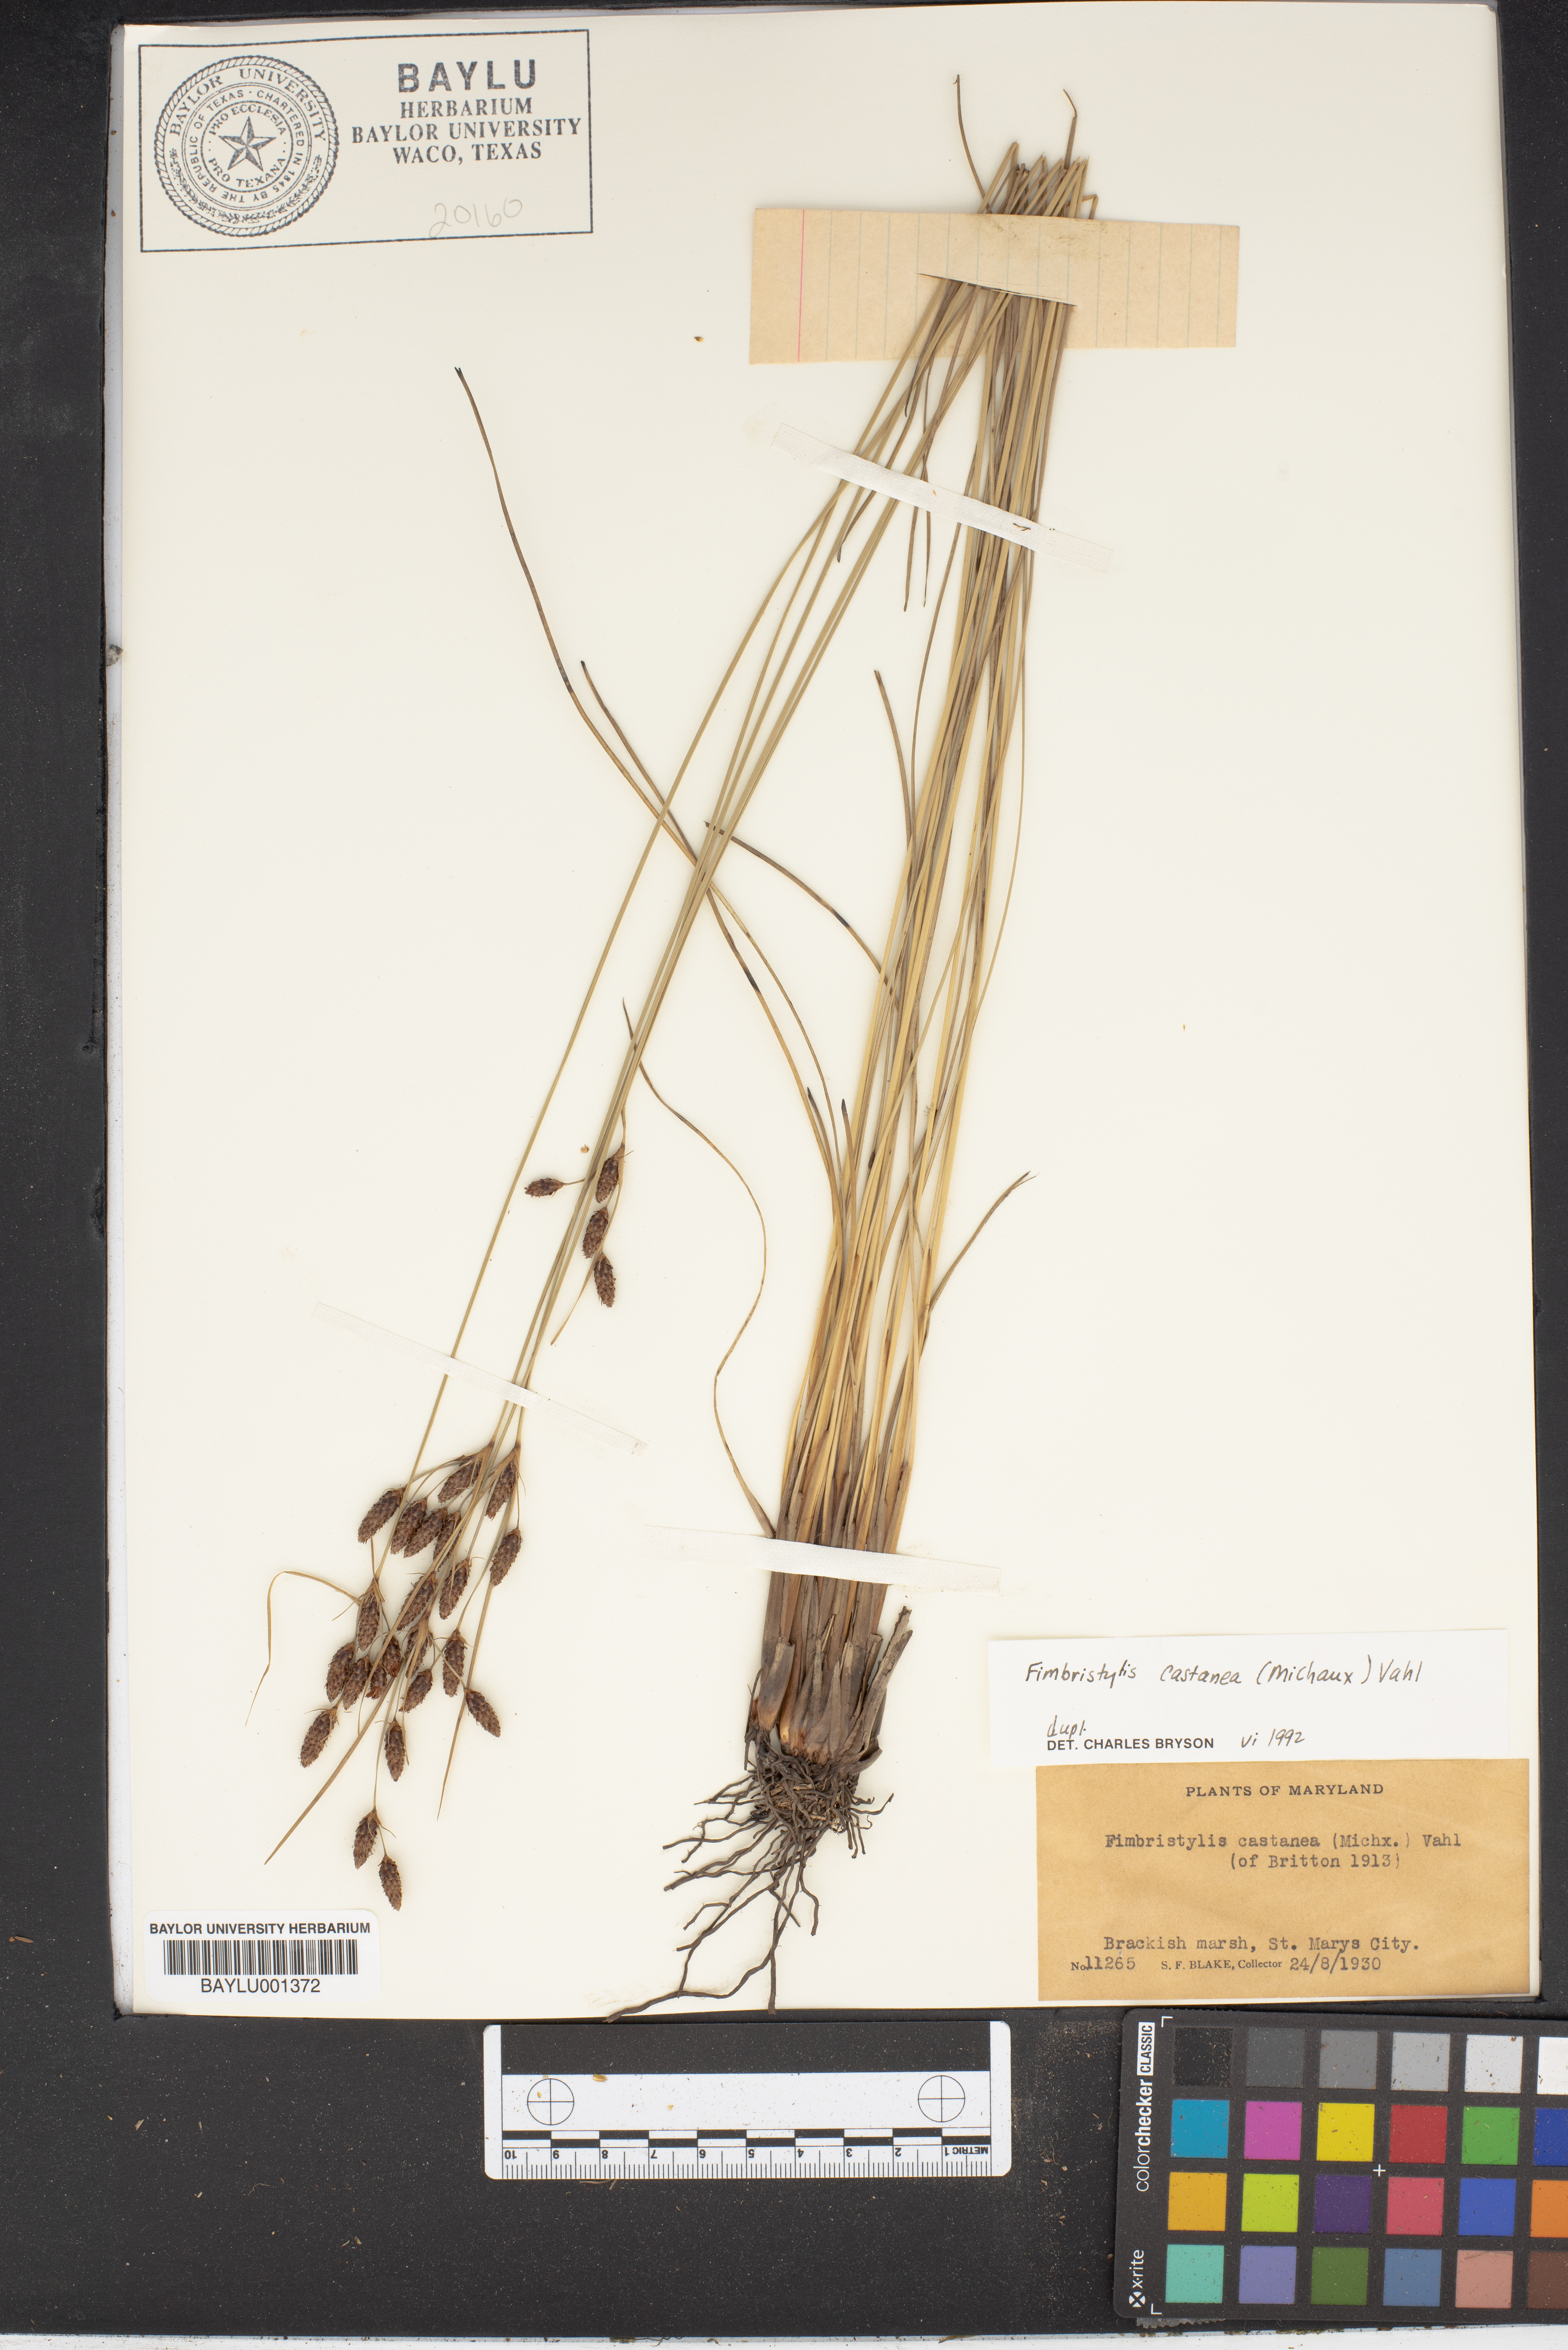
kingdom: Plantae
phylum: Tracheophyta
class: Liliopsida
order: Poales
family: Cyperaceae
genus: Fimbristylis
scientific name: Fimbristylis spadicea
